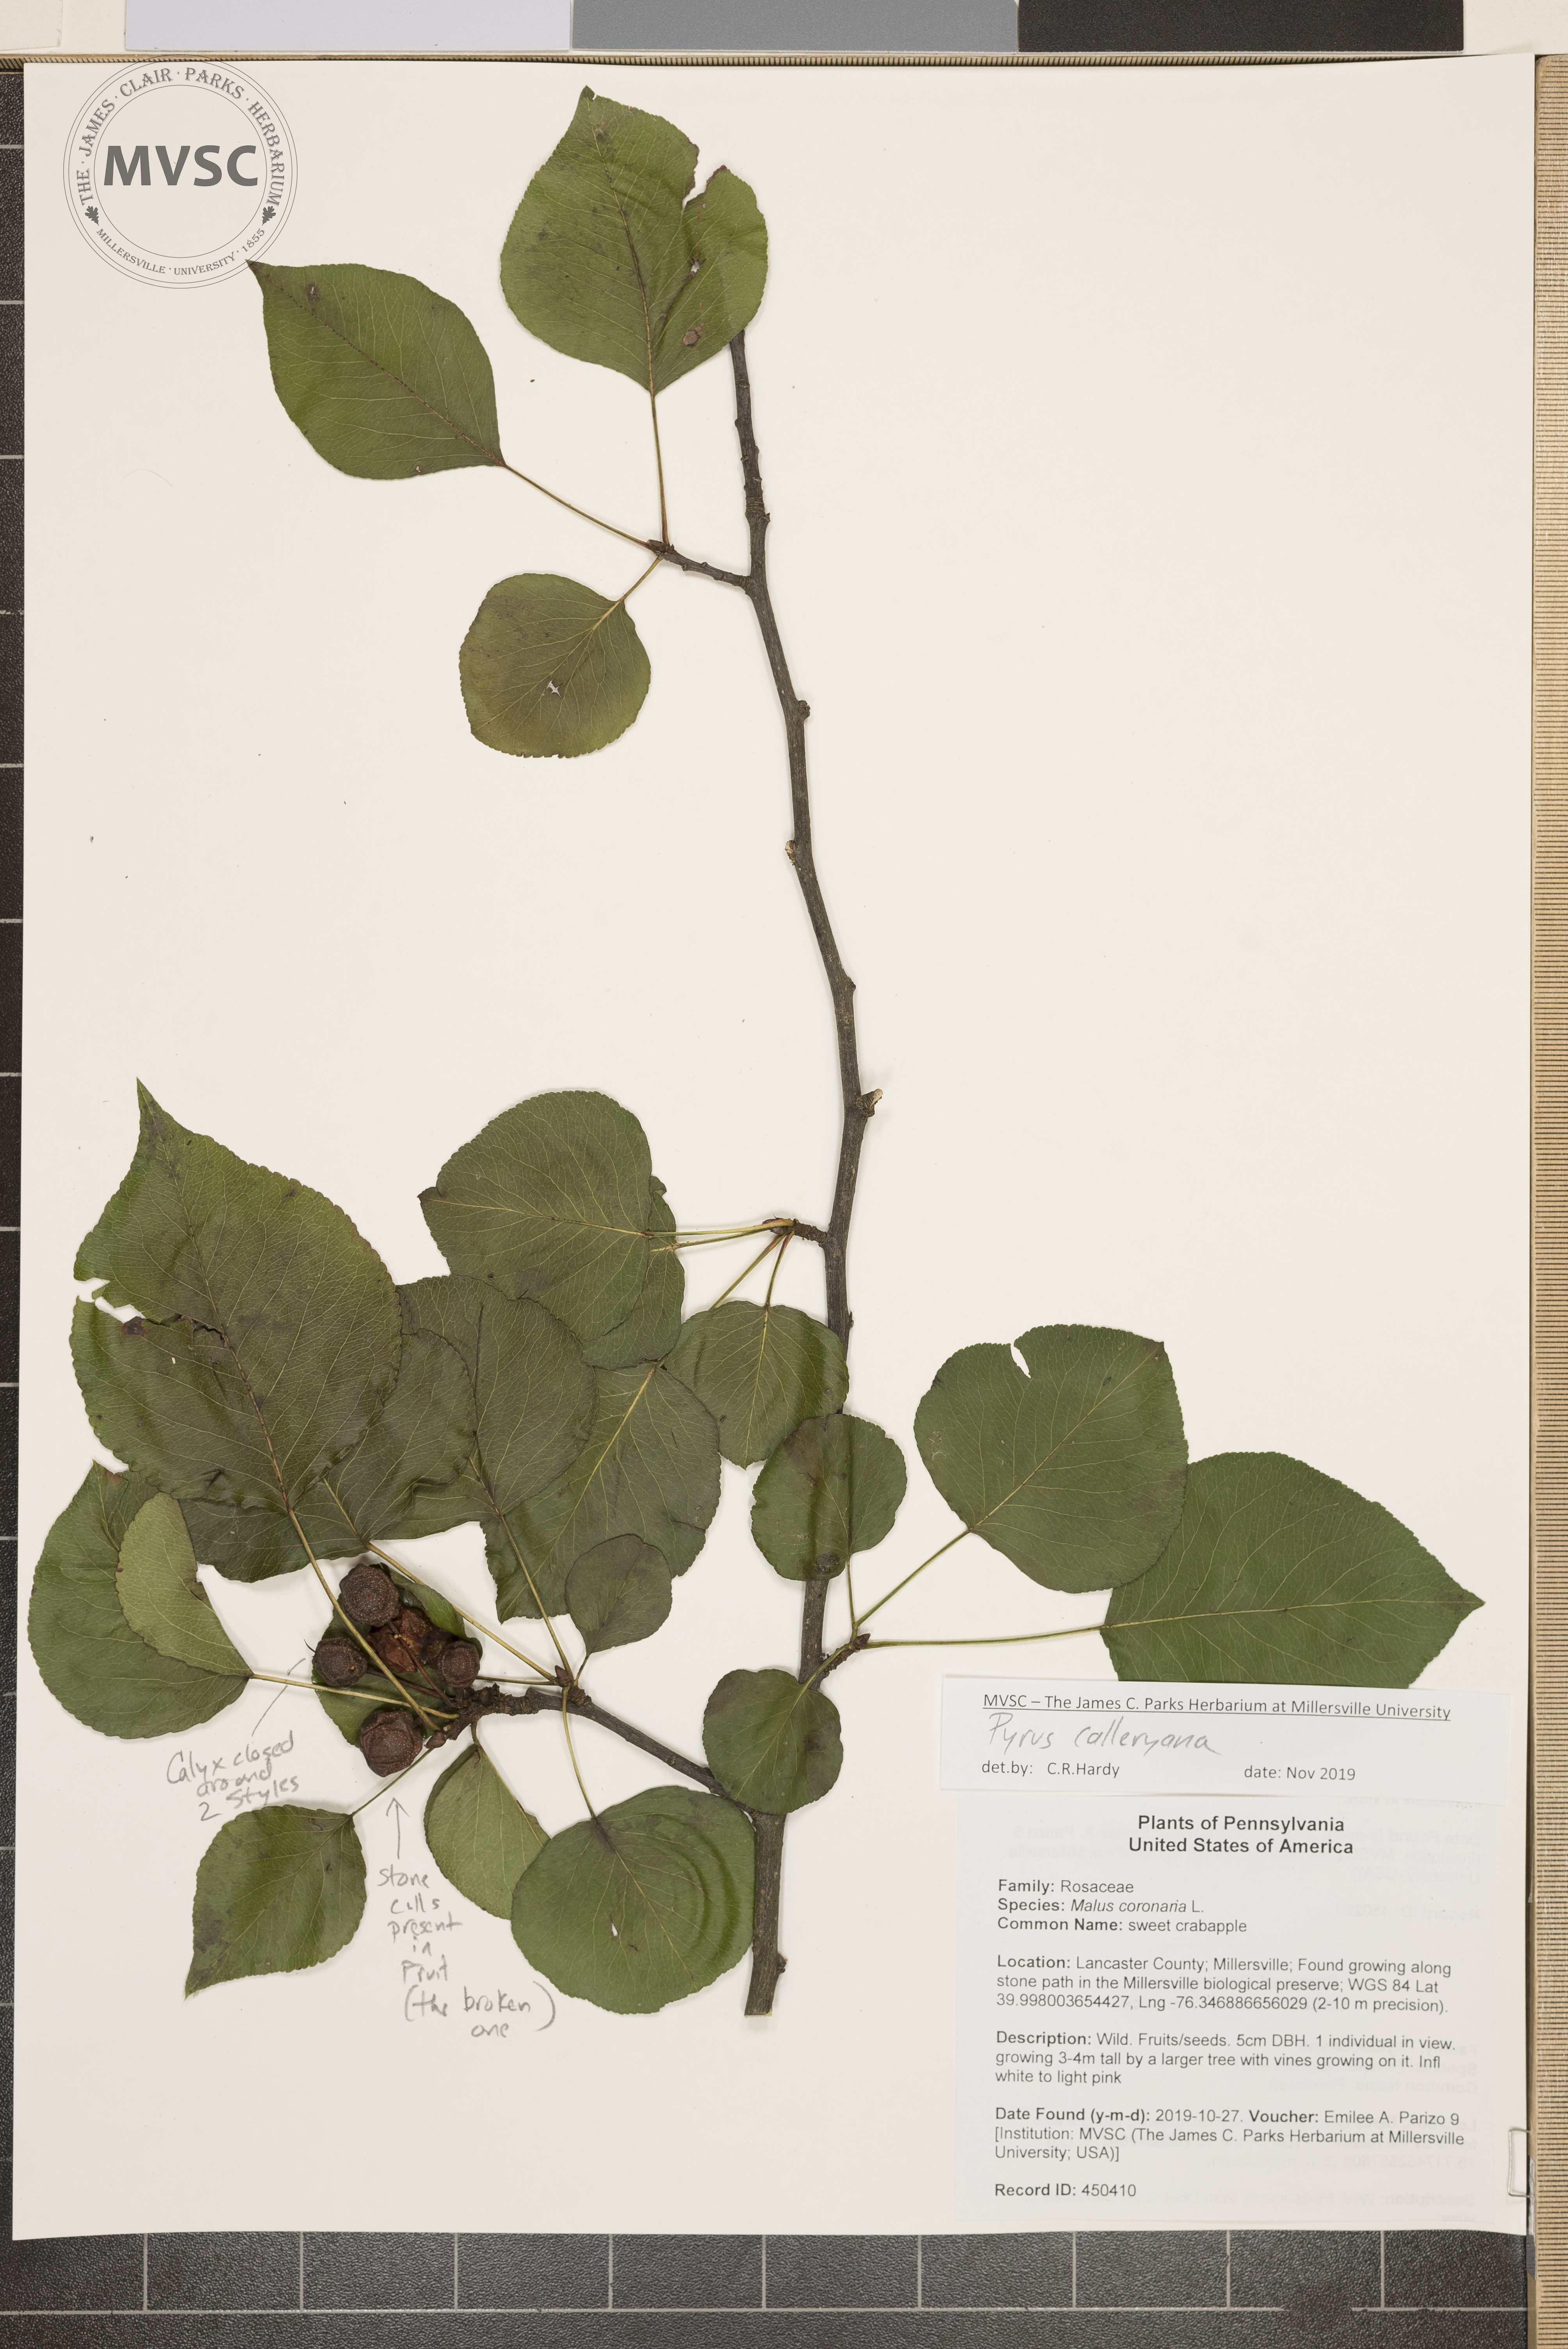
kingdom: Plantae
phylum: Tracheophyta
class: Magnoliopsida
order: Rosales
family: Rosaceae
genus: Pyrus
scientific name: Pyrus calleryana
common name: Callery pear
